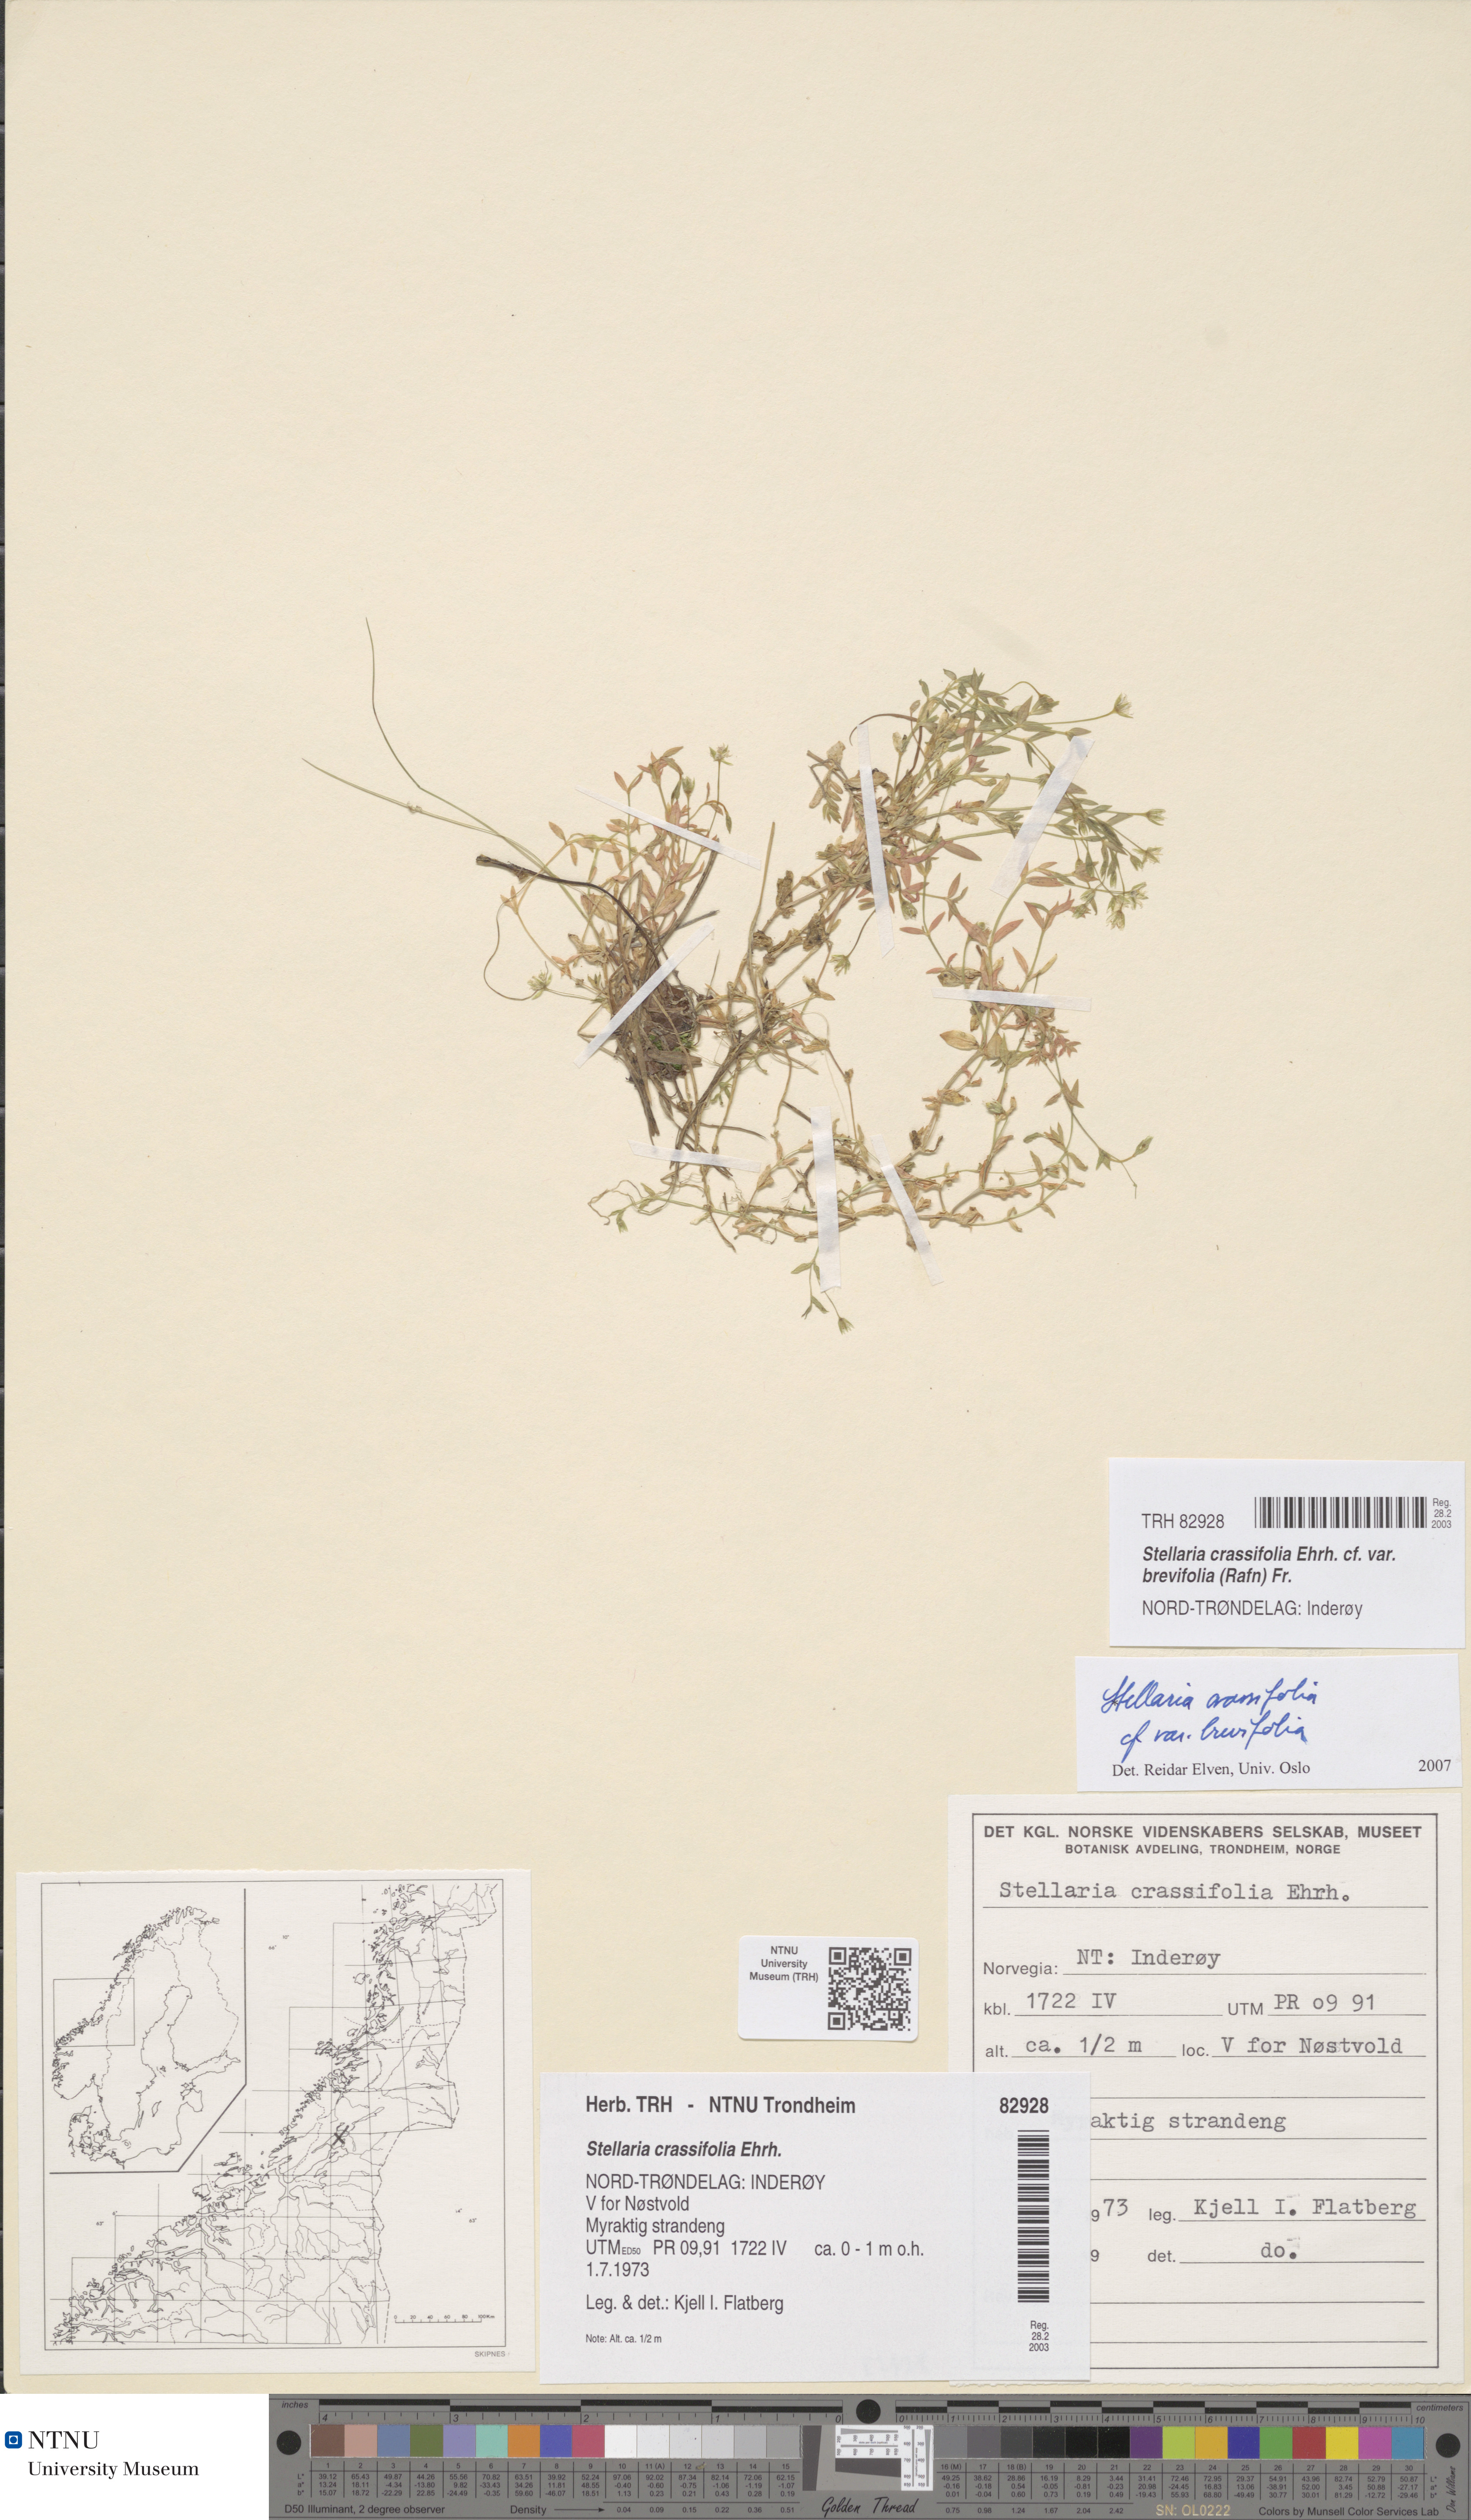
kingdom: Plantae
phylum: Tracheophyta
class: Magnoliopsida
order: Caryophyllales
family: Caryophyllaceae
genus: Stellaria
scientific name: Stellaria crassifolia
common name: Fleshy starwort
